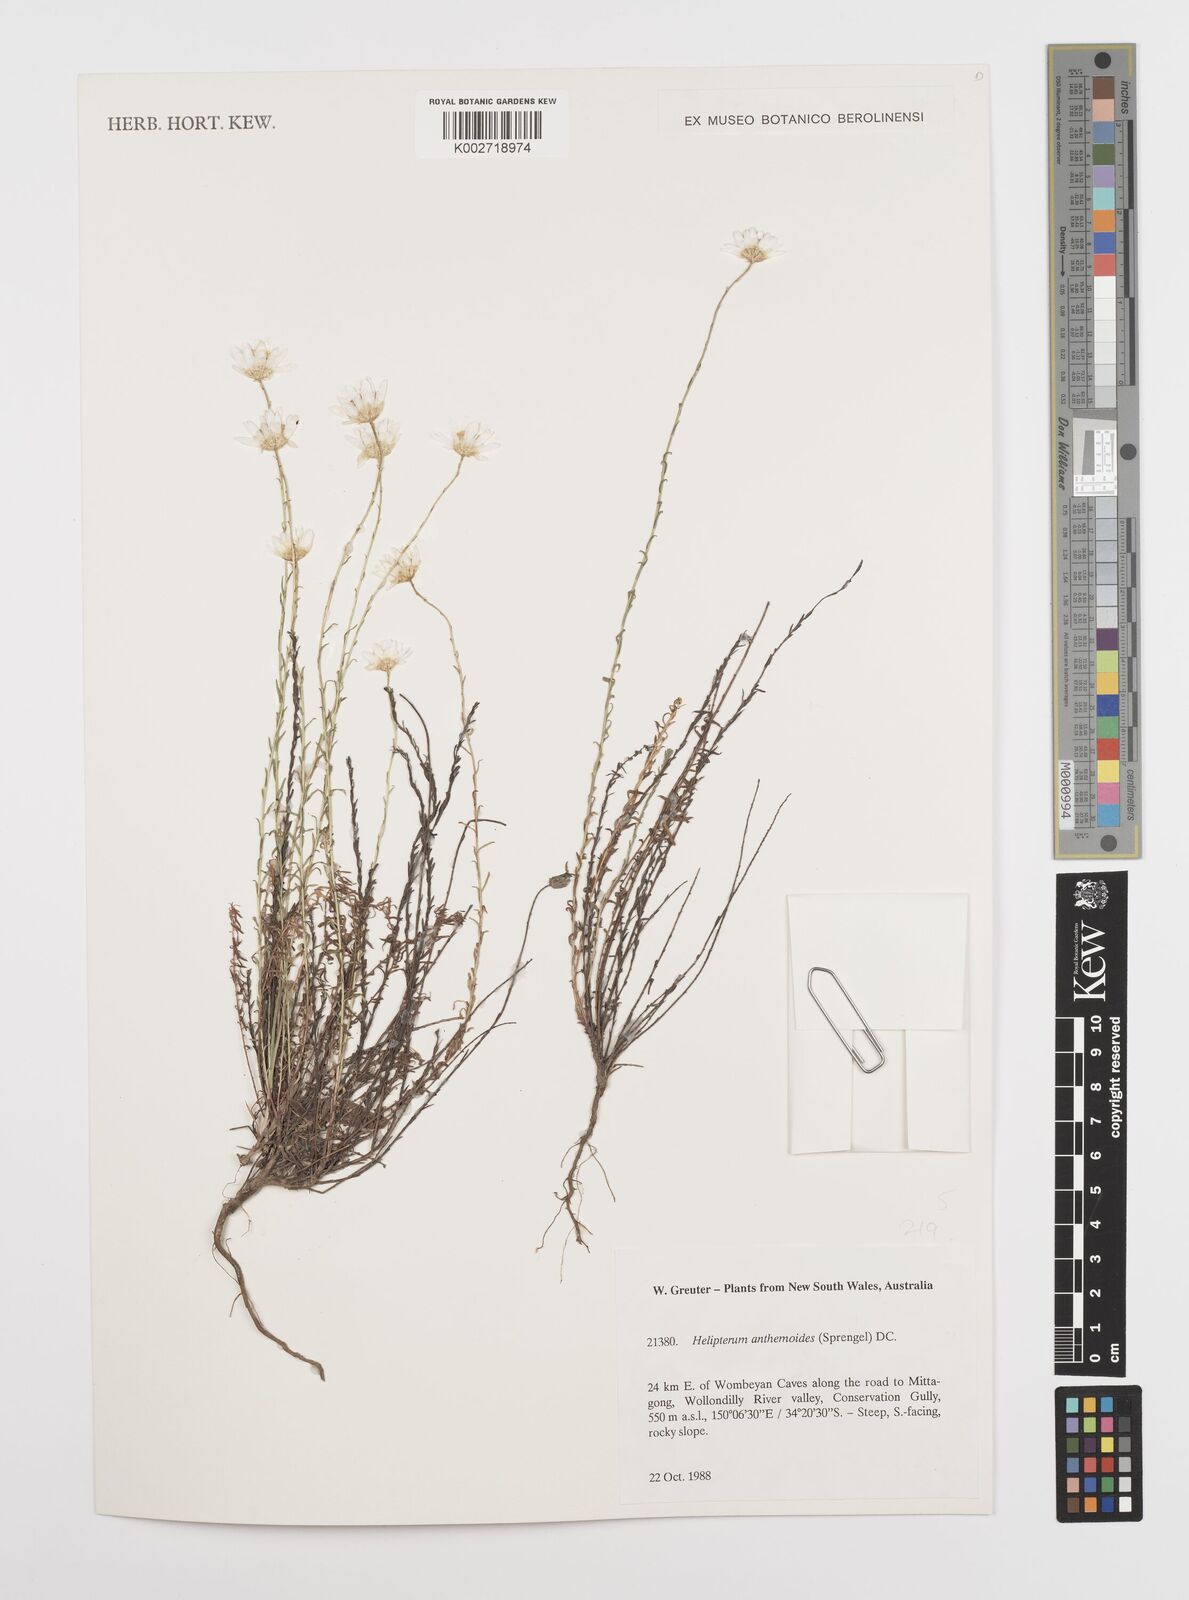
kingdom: Plantae
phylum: Tracheophyta
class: Magnoliopsida
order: Asterales
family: Asteraceae
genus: Rhodanthe
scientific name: Rhodanthe anthemoides
